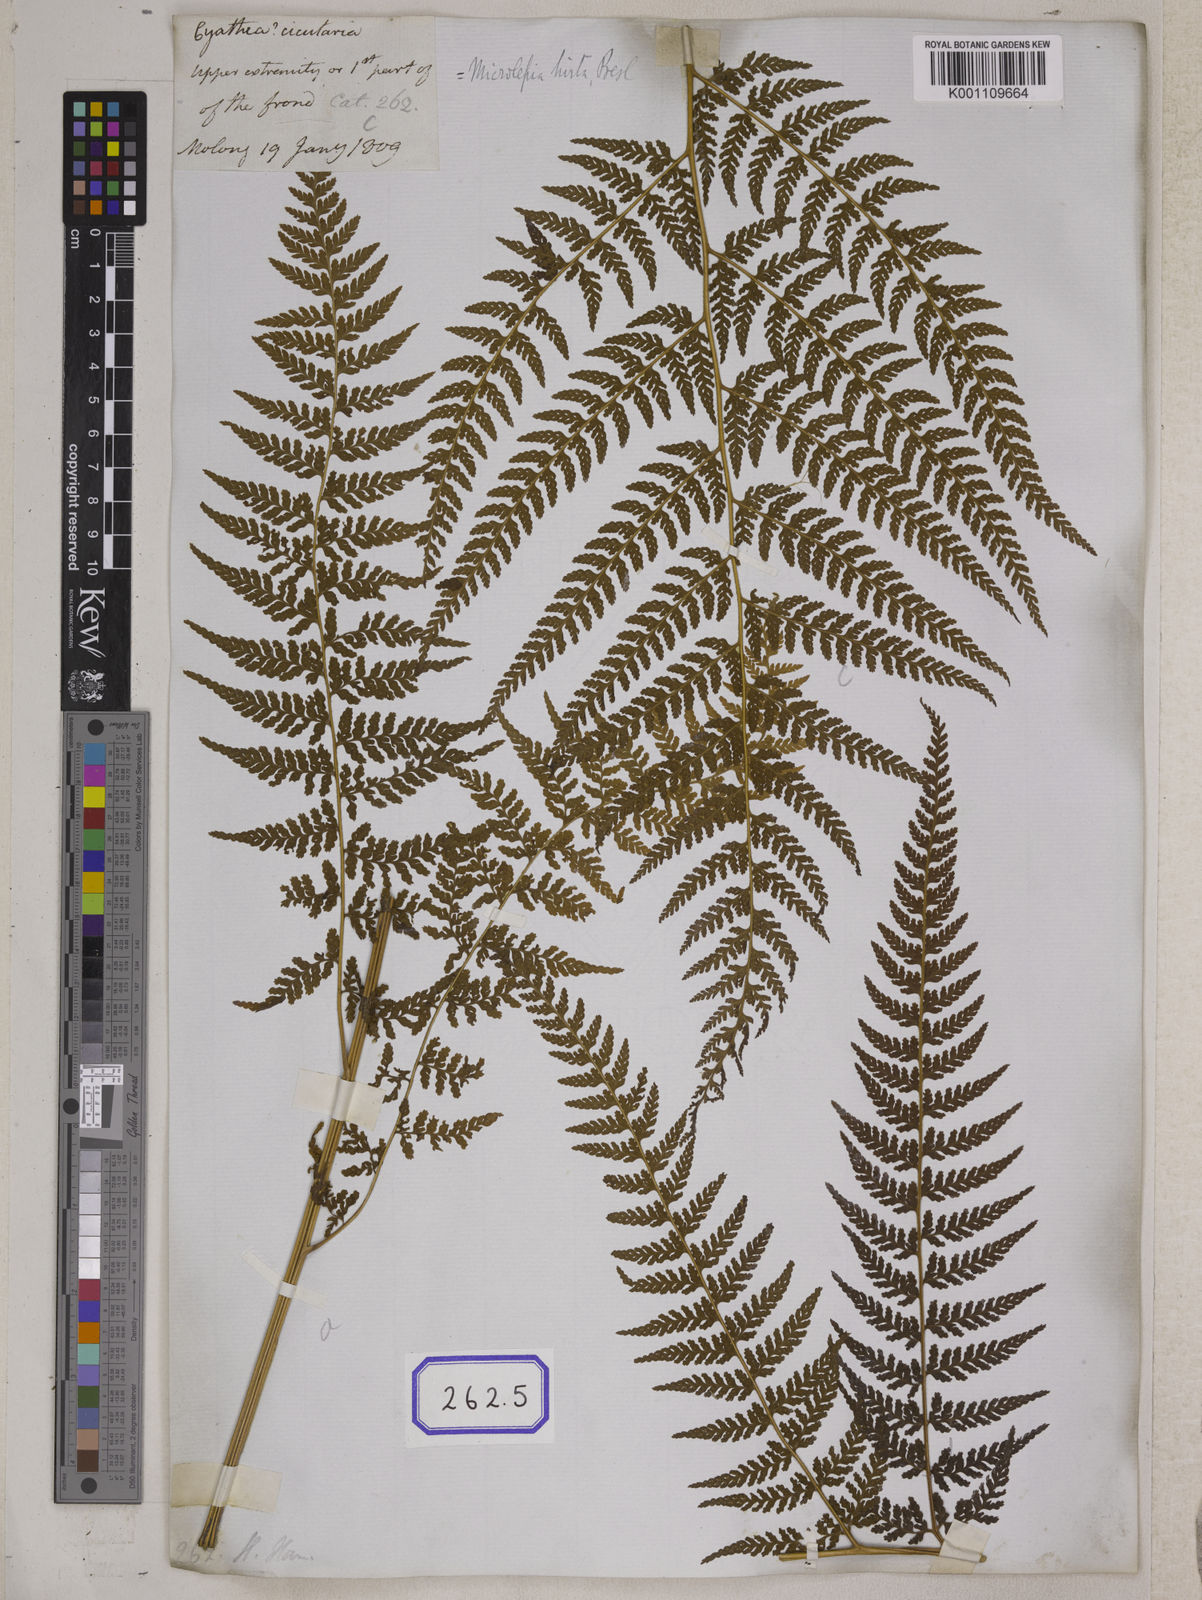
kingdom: Plantae
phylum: Tracheophyta
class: Polypodiopsida
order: Polypodiales
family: Dennstaedtiaceae
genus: Microlepia
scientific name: Microlepia marginata
